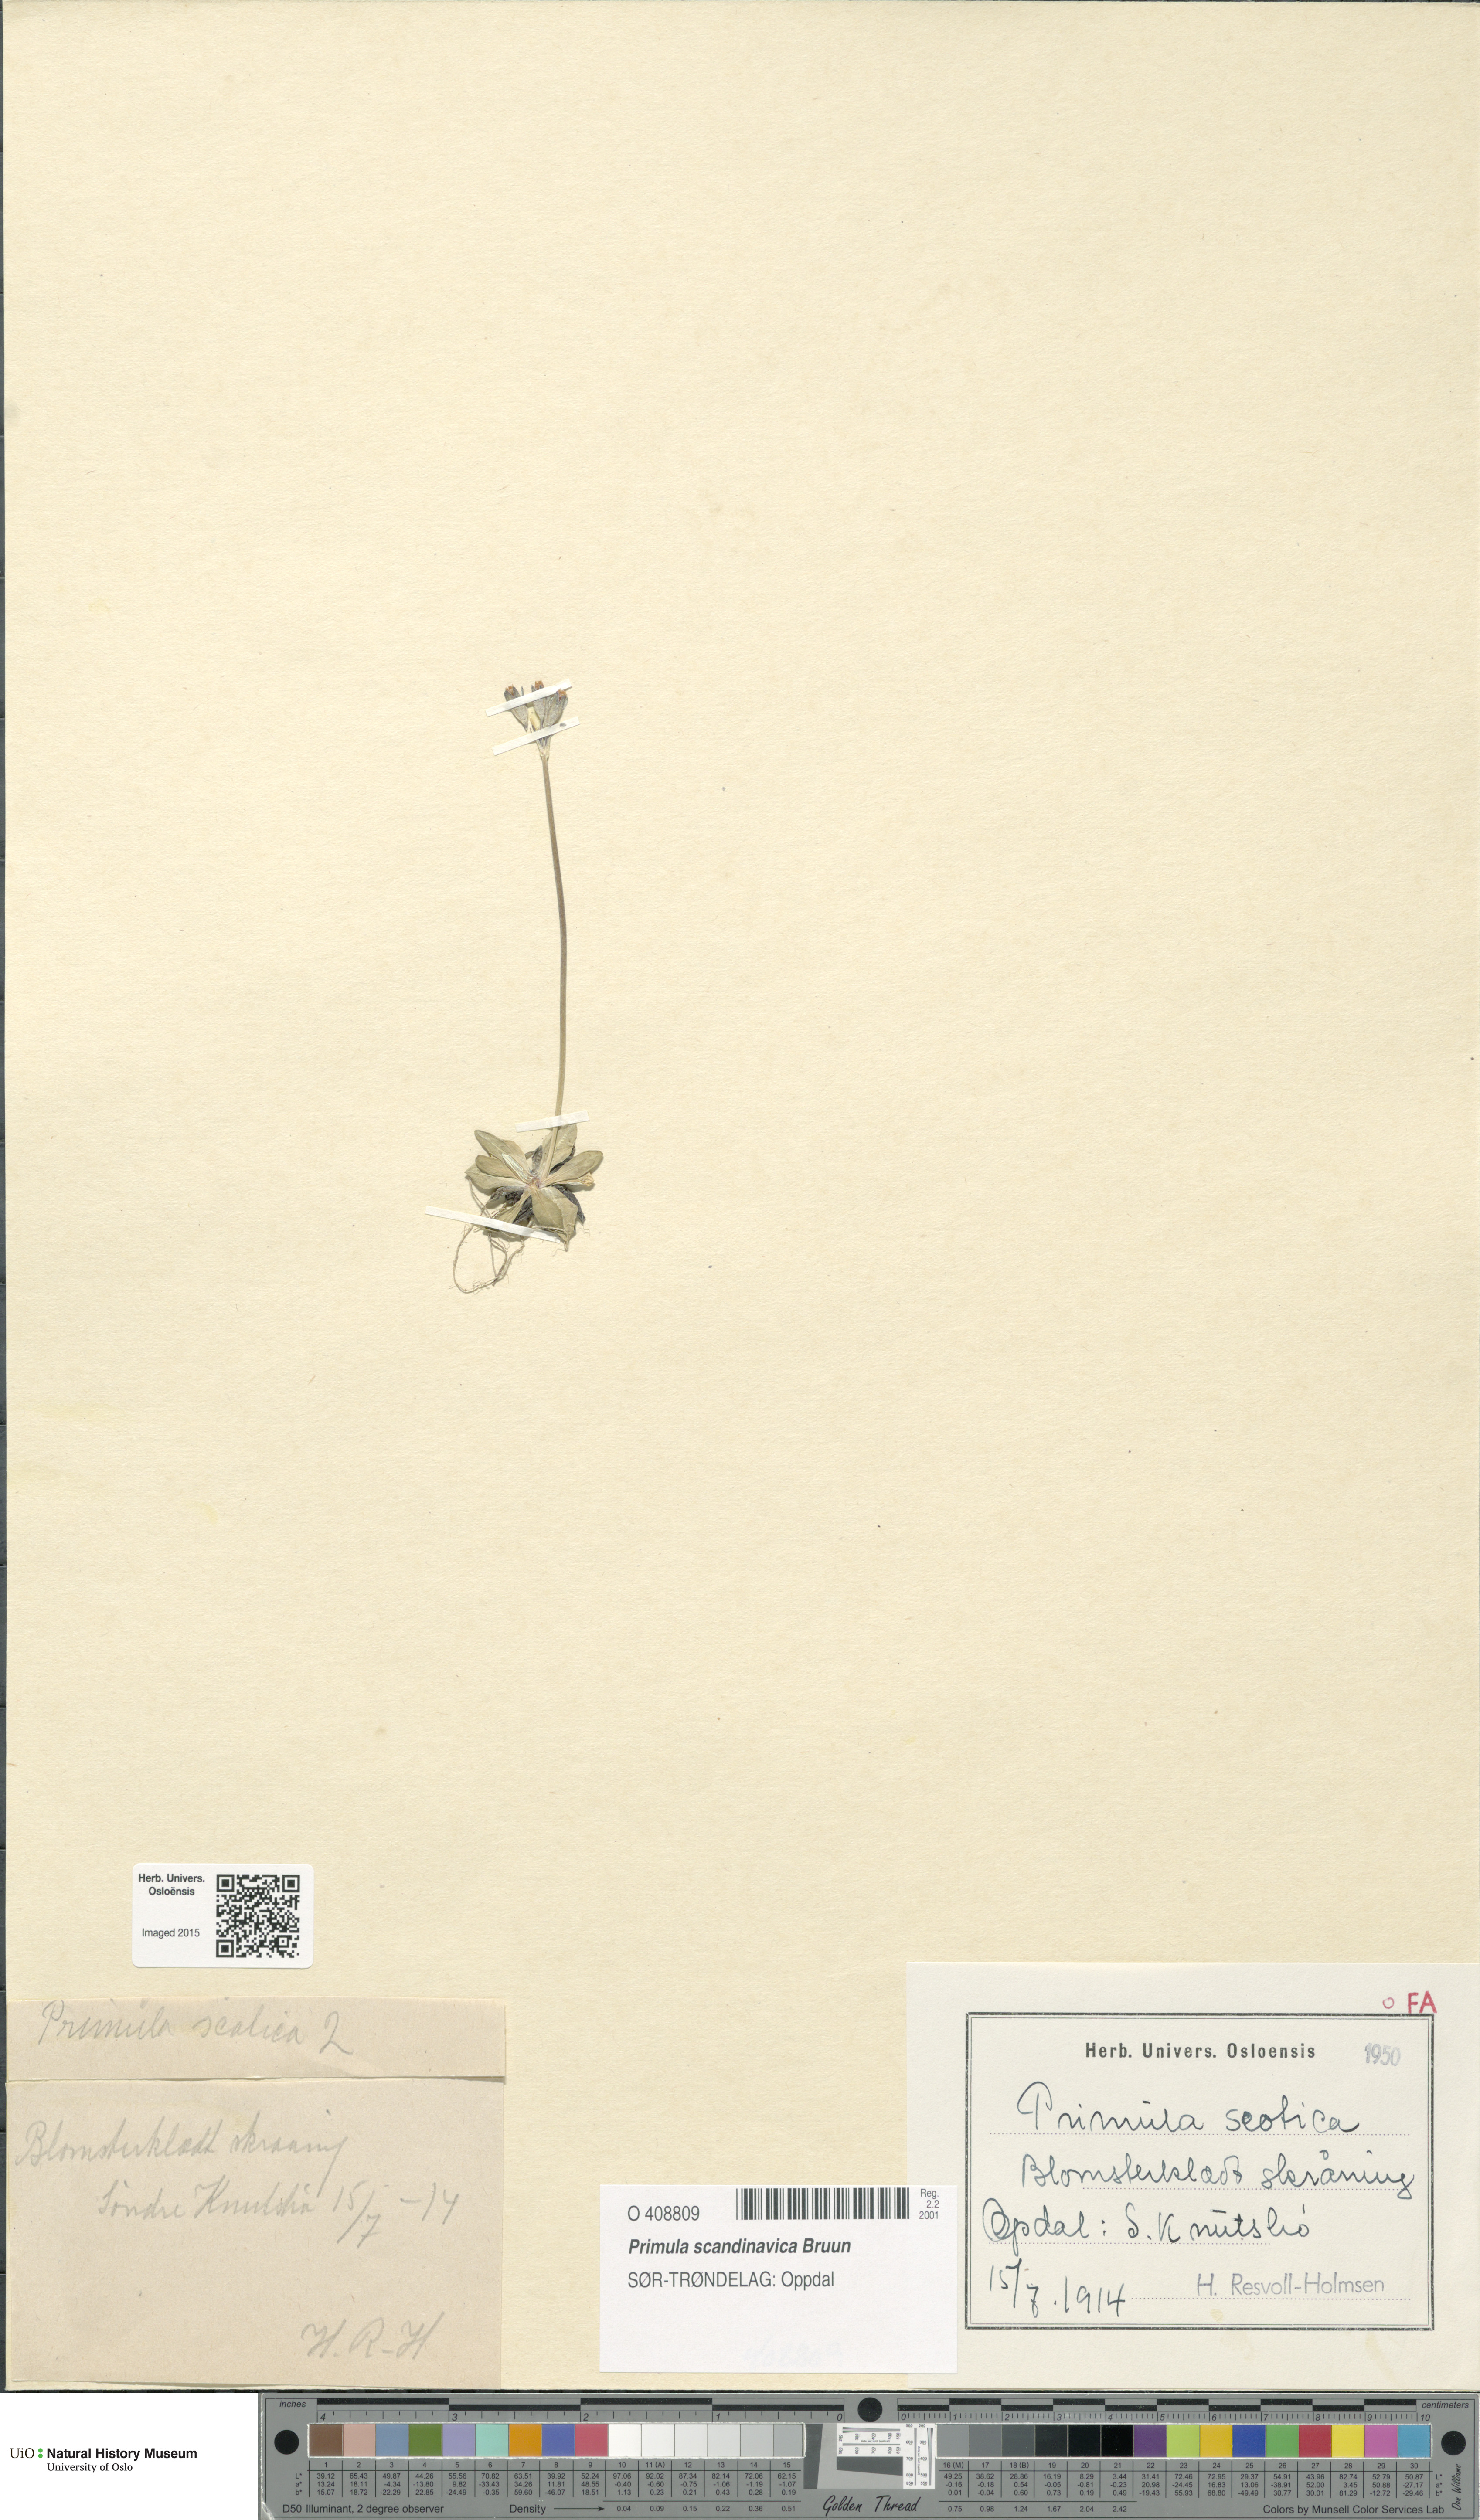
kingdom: Plantae
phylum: Tracheophyta
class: Magnoliopsida
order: Ericales
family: Primulaceae
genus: Primula
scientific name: Primula scandinavica
